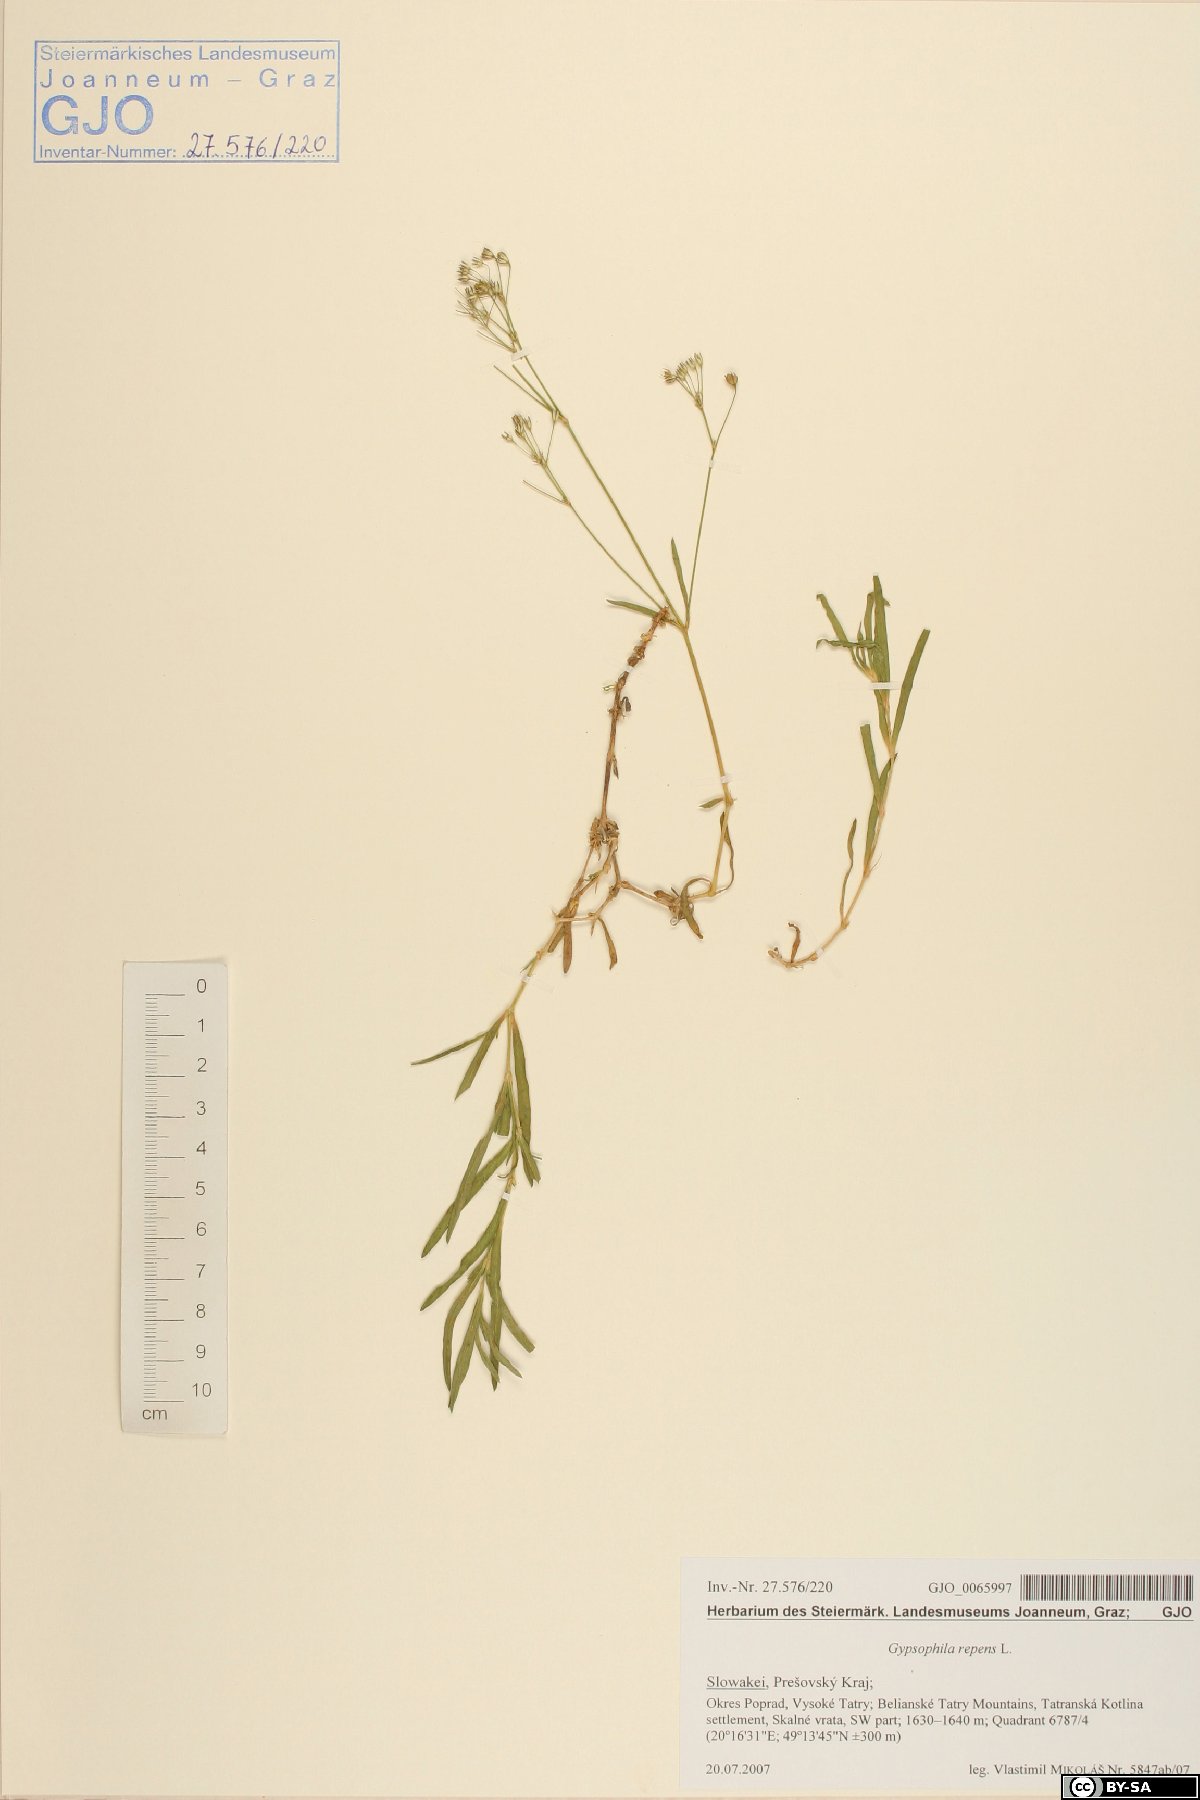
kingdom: Plantae
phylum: Tracheophyta
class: Magnoliopsida
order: Caryophyllales
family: Caryophyllaceae
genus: Gypsophila
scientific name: Gypsophila repens
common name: Creeping baby's-breath
